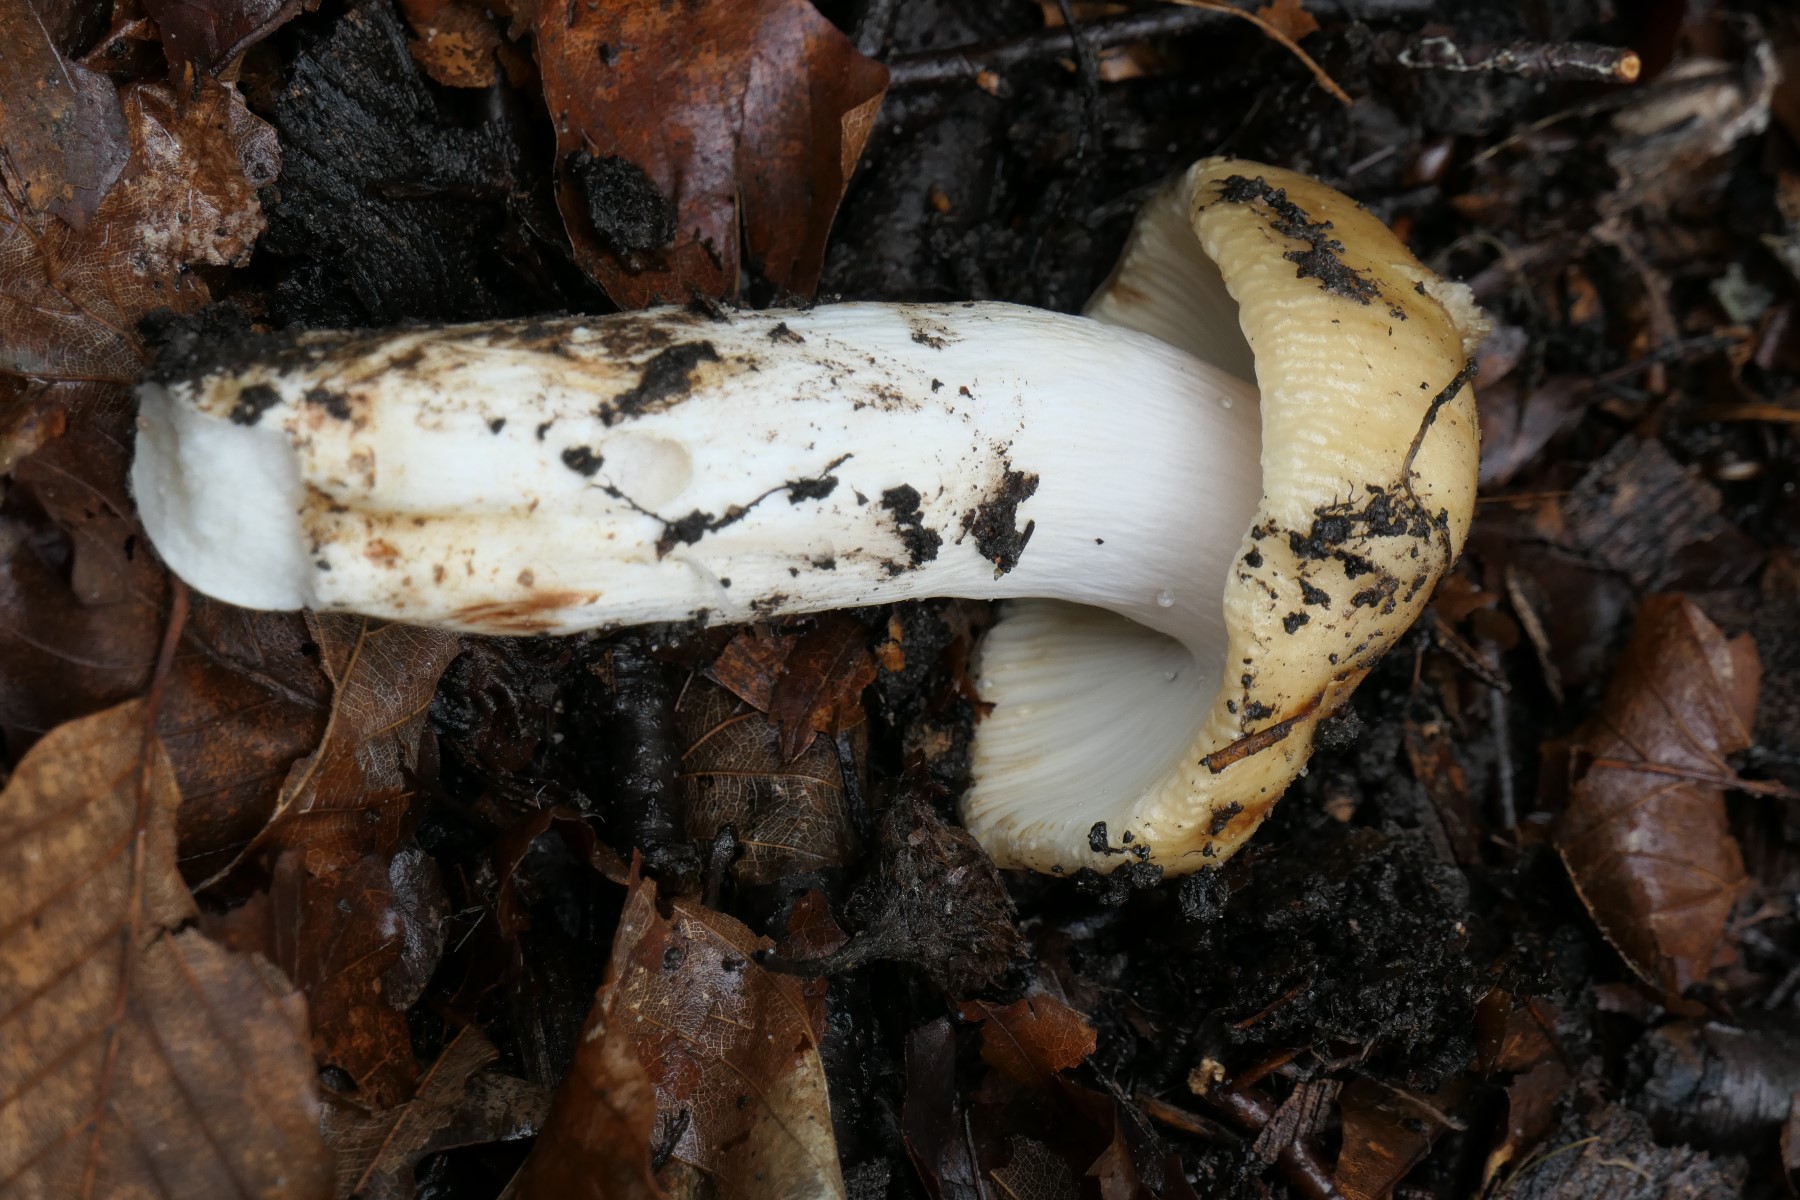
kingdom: Fungi
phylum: Basidiomycota
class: Agaricomycetes
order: Russulales
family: Russulaceae
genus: Russula
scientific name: Russula grata
